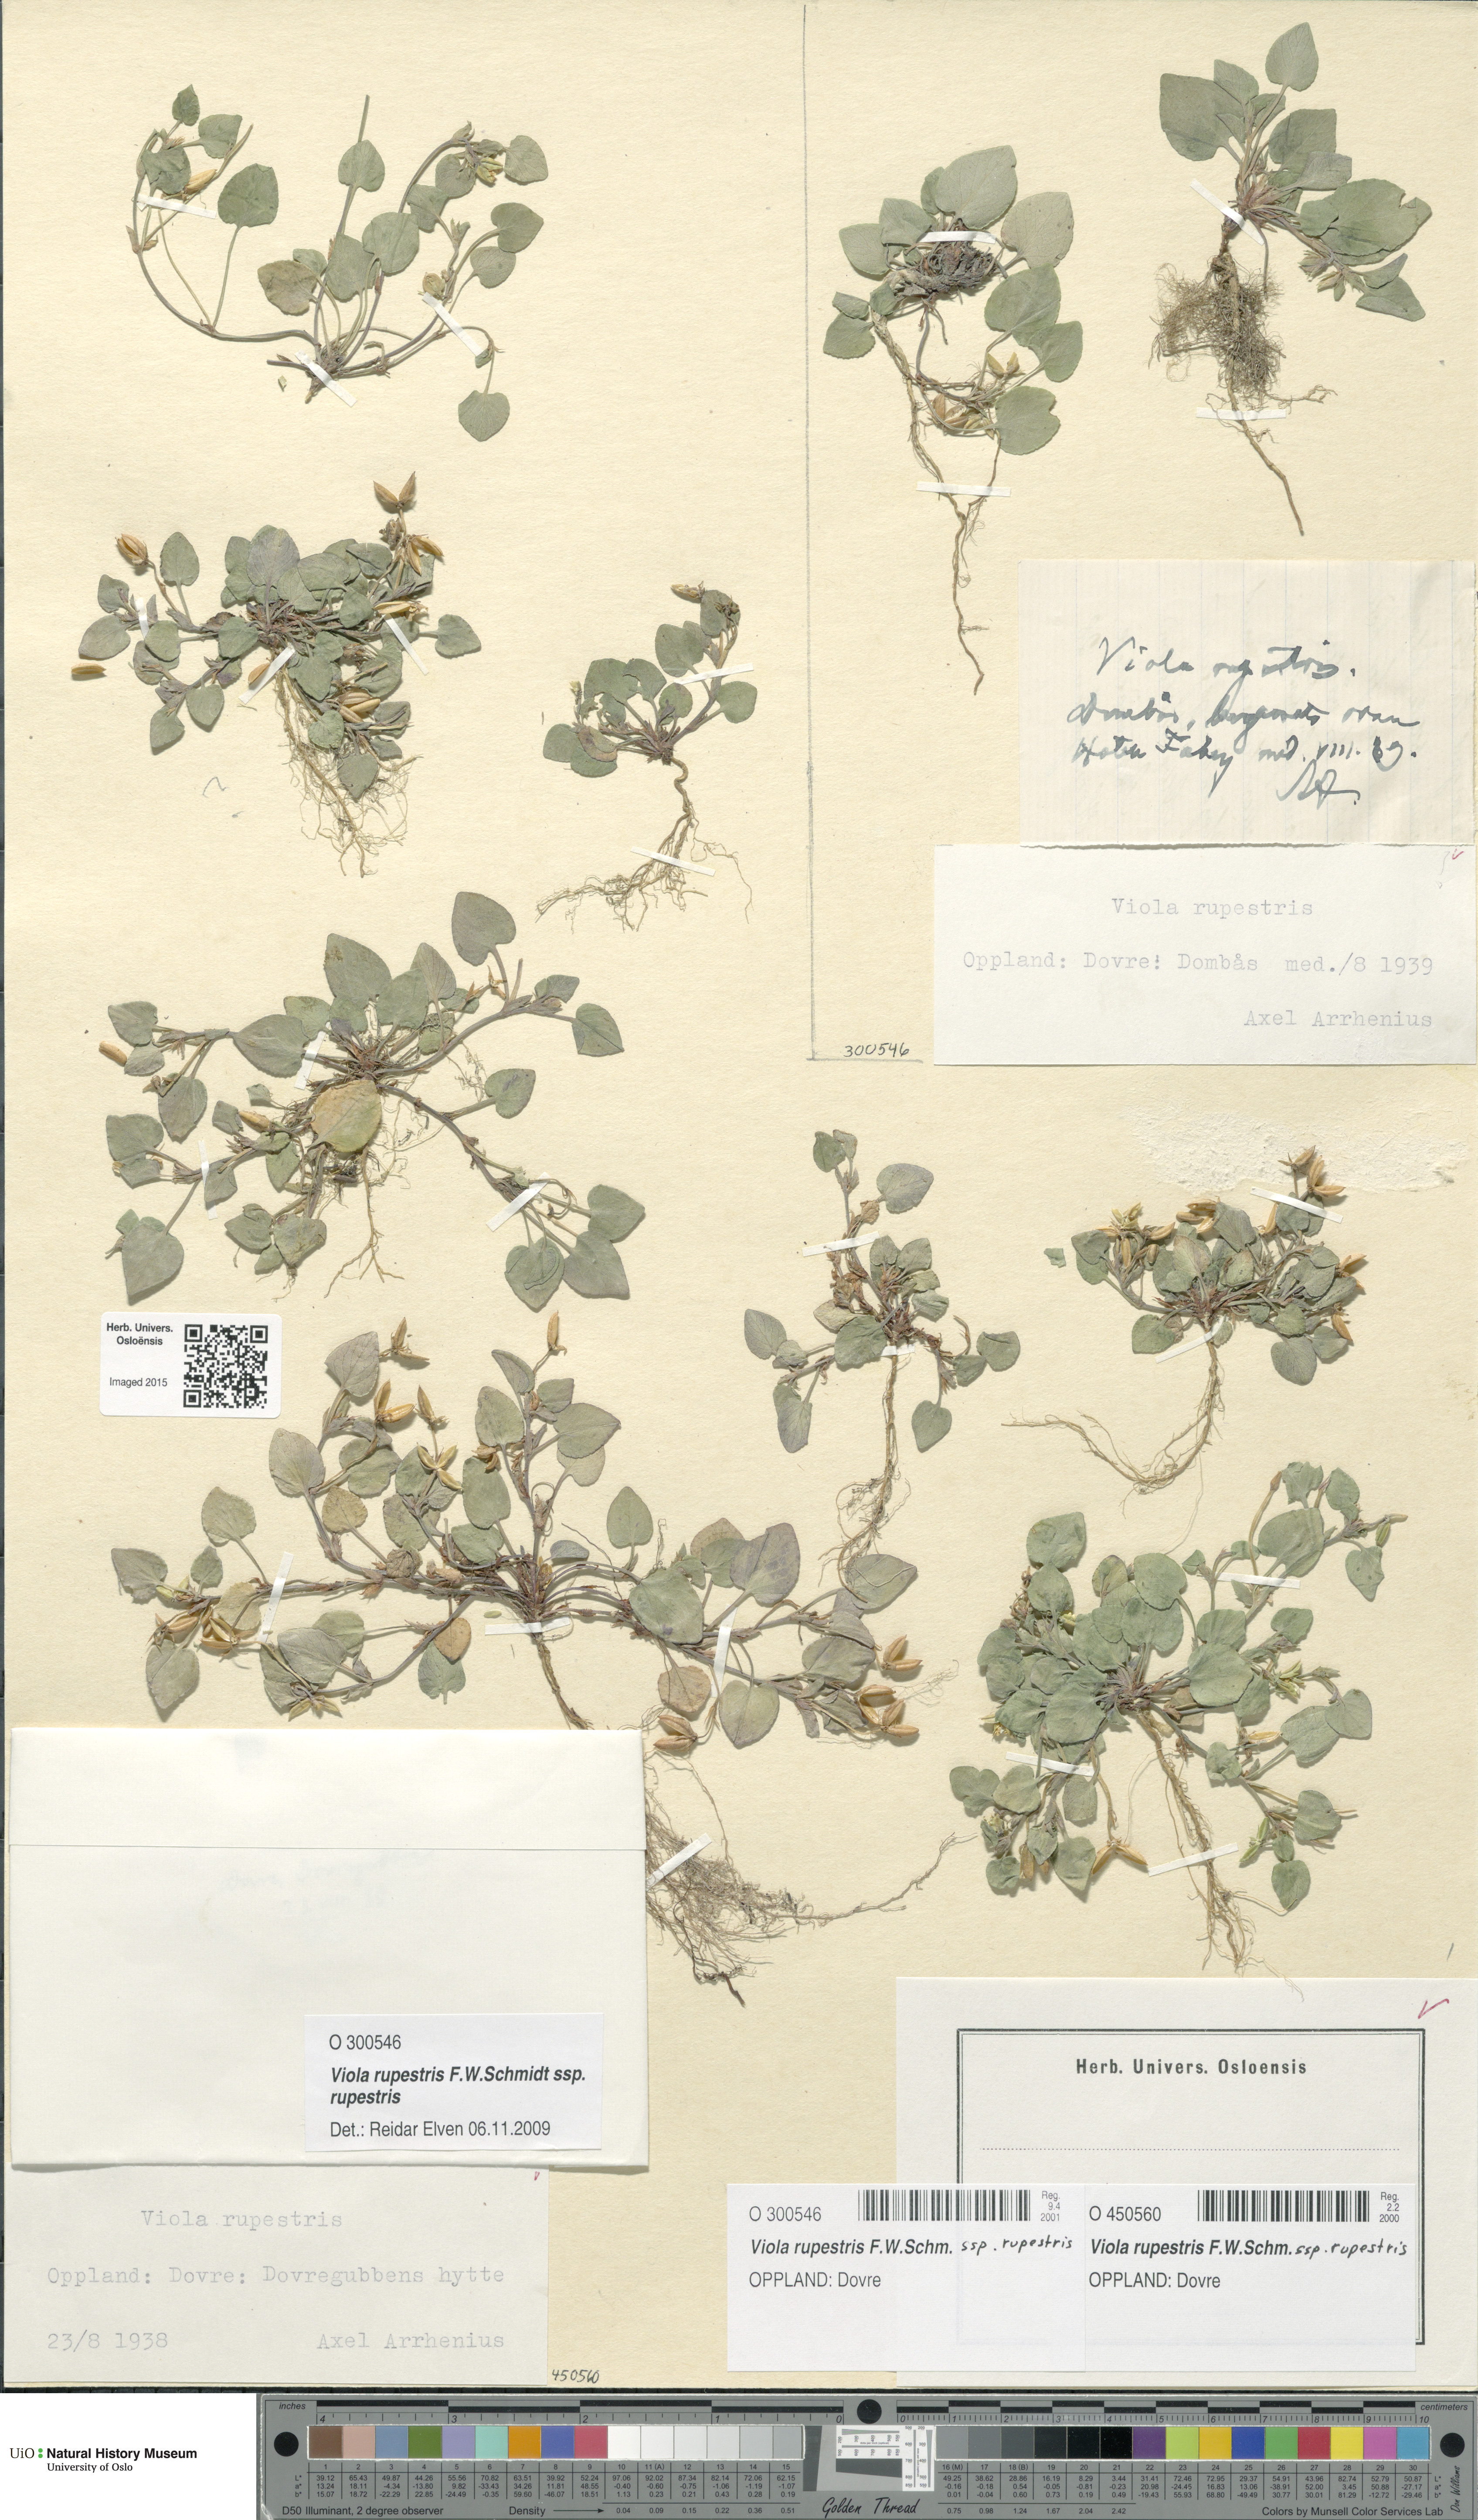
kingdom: Plantae
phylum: Tracheophyta
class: Magnoliopsida
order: Malpighiales
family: Violaceae
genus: Viola
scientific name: Viola rupestris
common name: Teesdale violet
